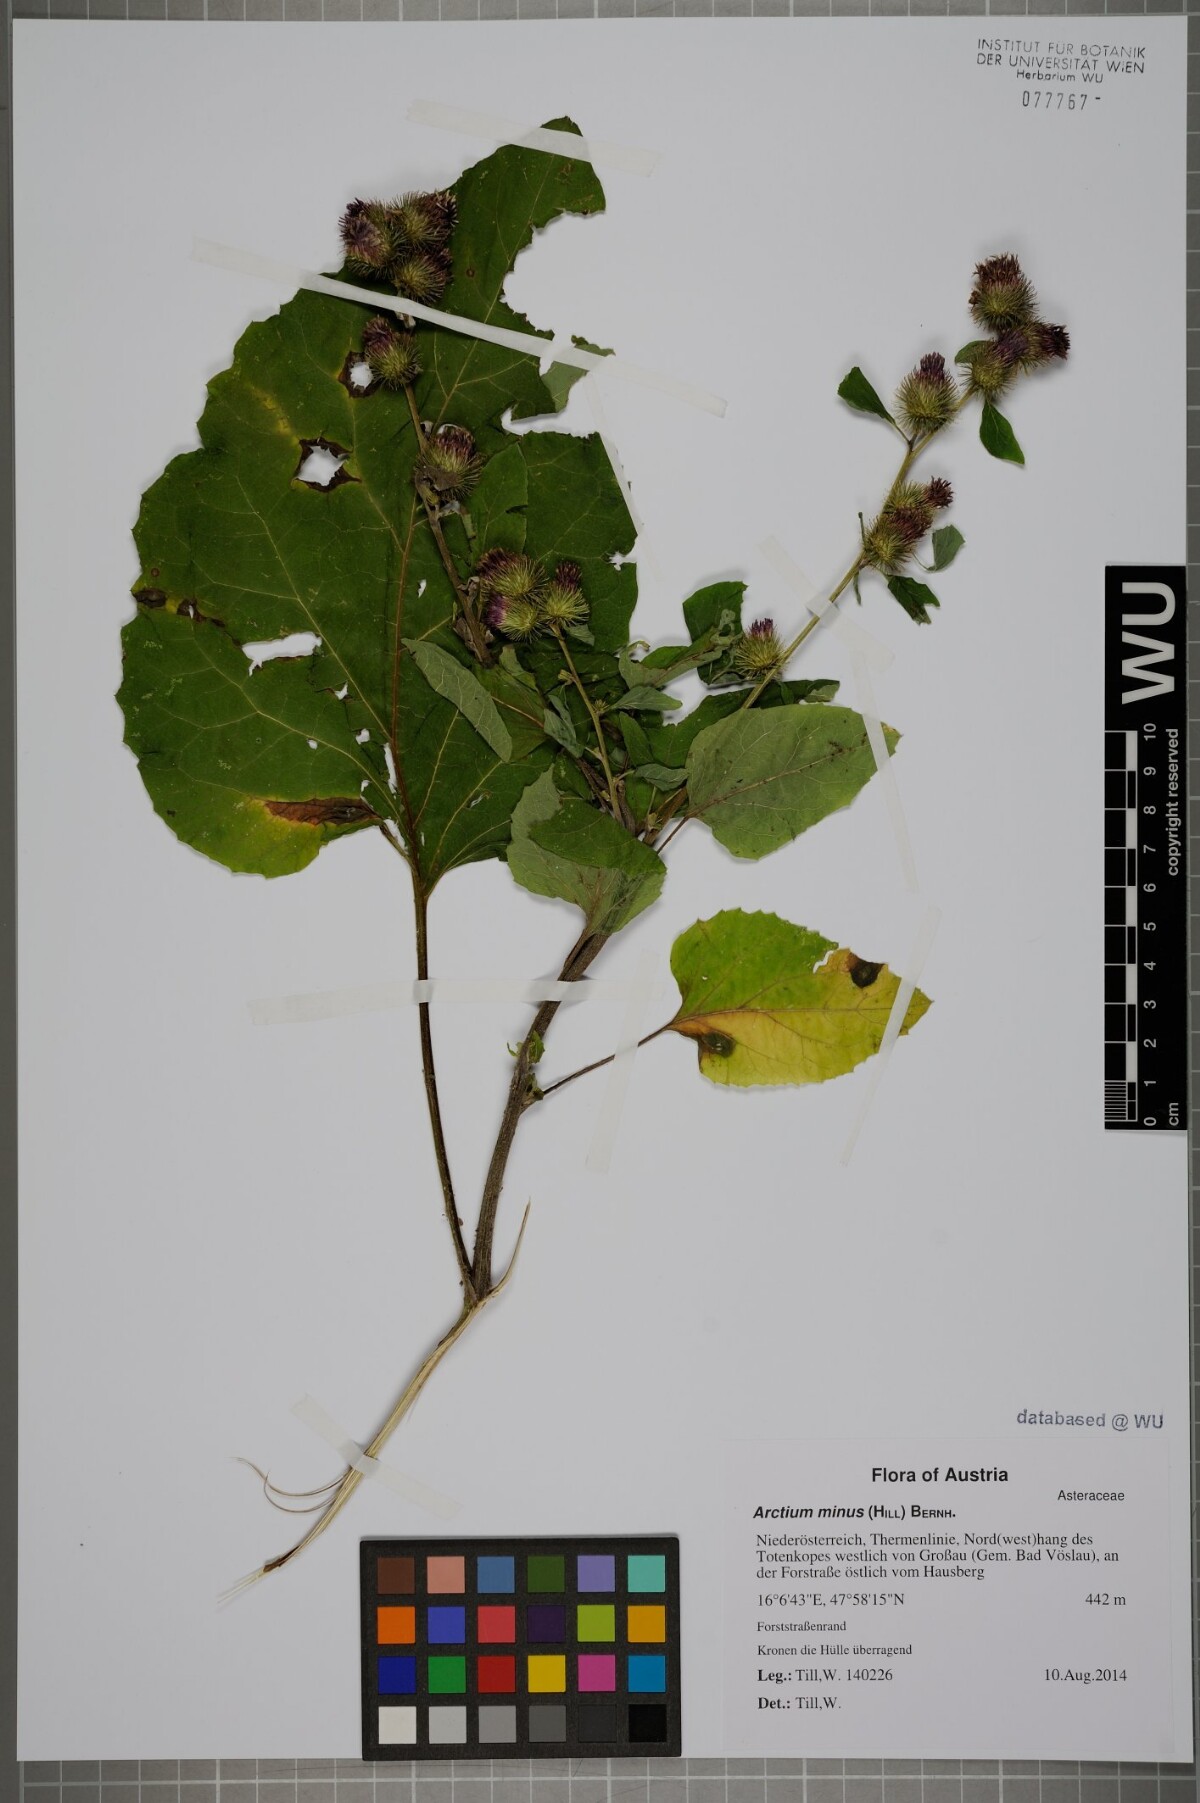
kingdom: Plantae
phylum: Tracheophyta
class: Magnoliopsida
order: Asterales
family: Asteraceae
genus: Arctium
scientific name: Arctium minus
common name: Lesser burdock
